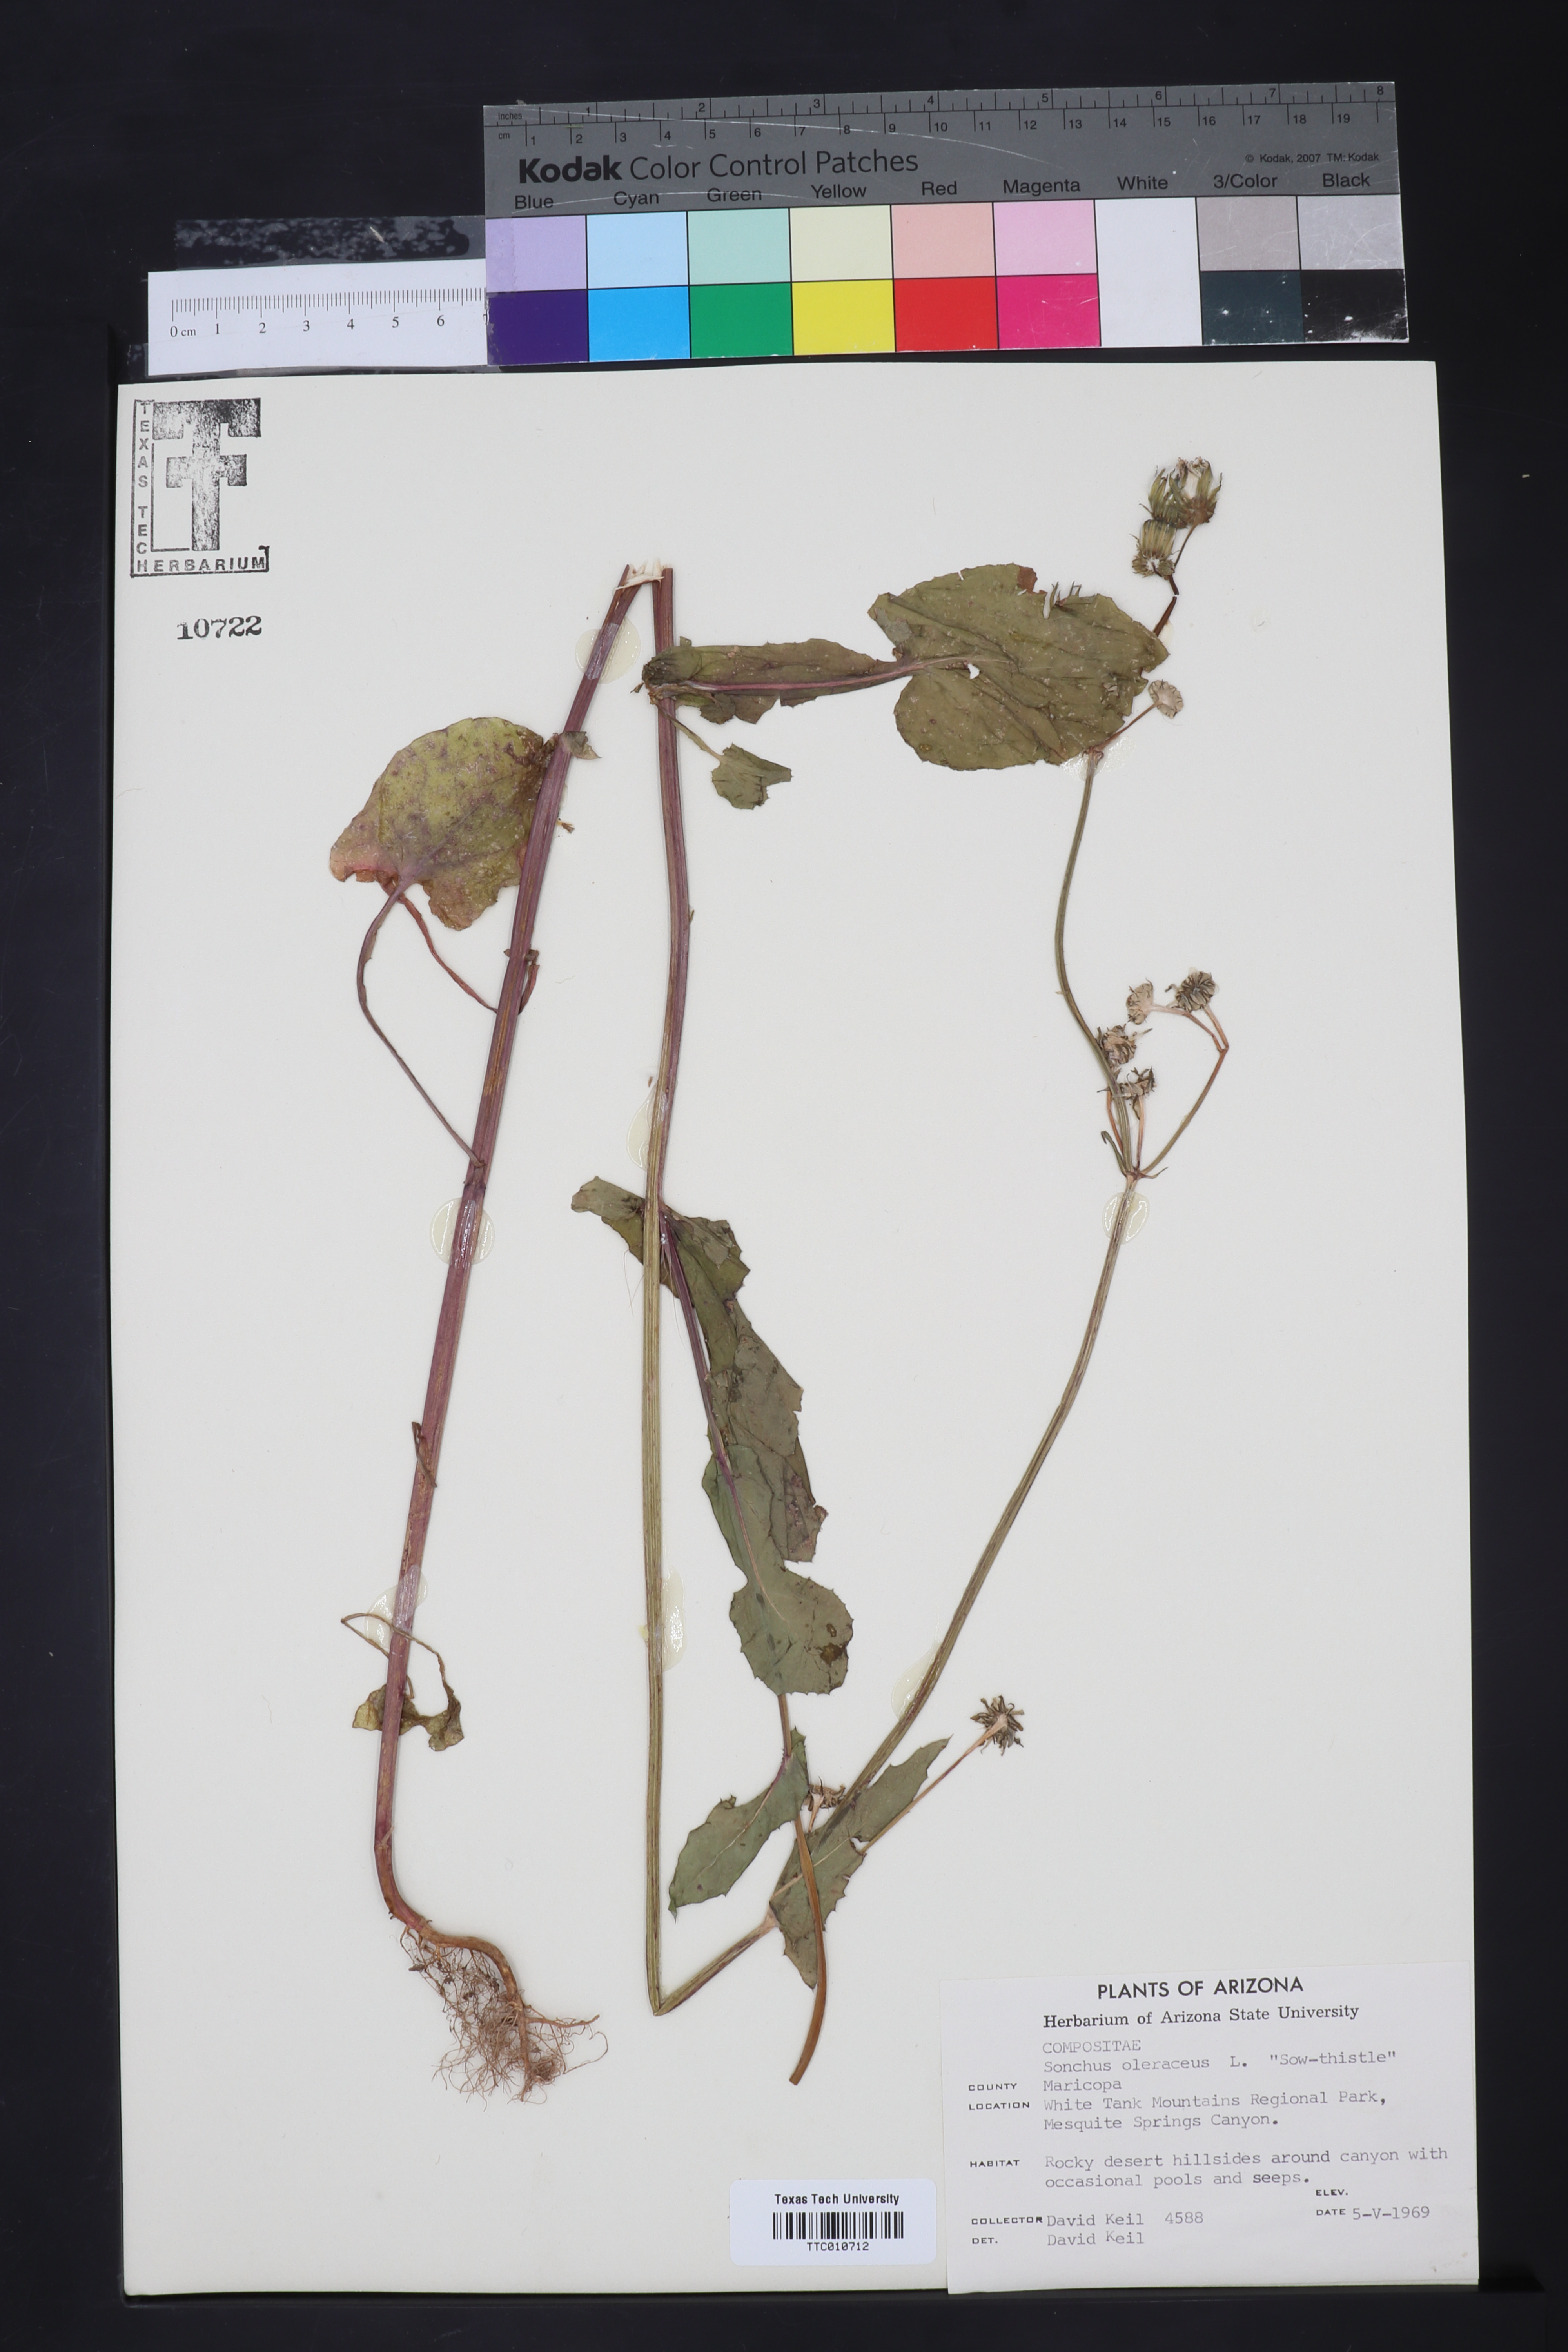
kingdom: Plantae
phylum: Tracheophyta
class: Magnoliopsida
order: Asterales
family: Asteraceae
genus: Sonchus
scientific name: Sonchus oleraceus
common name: Common sowthistle
